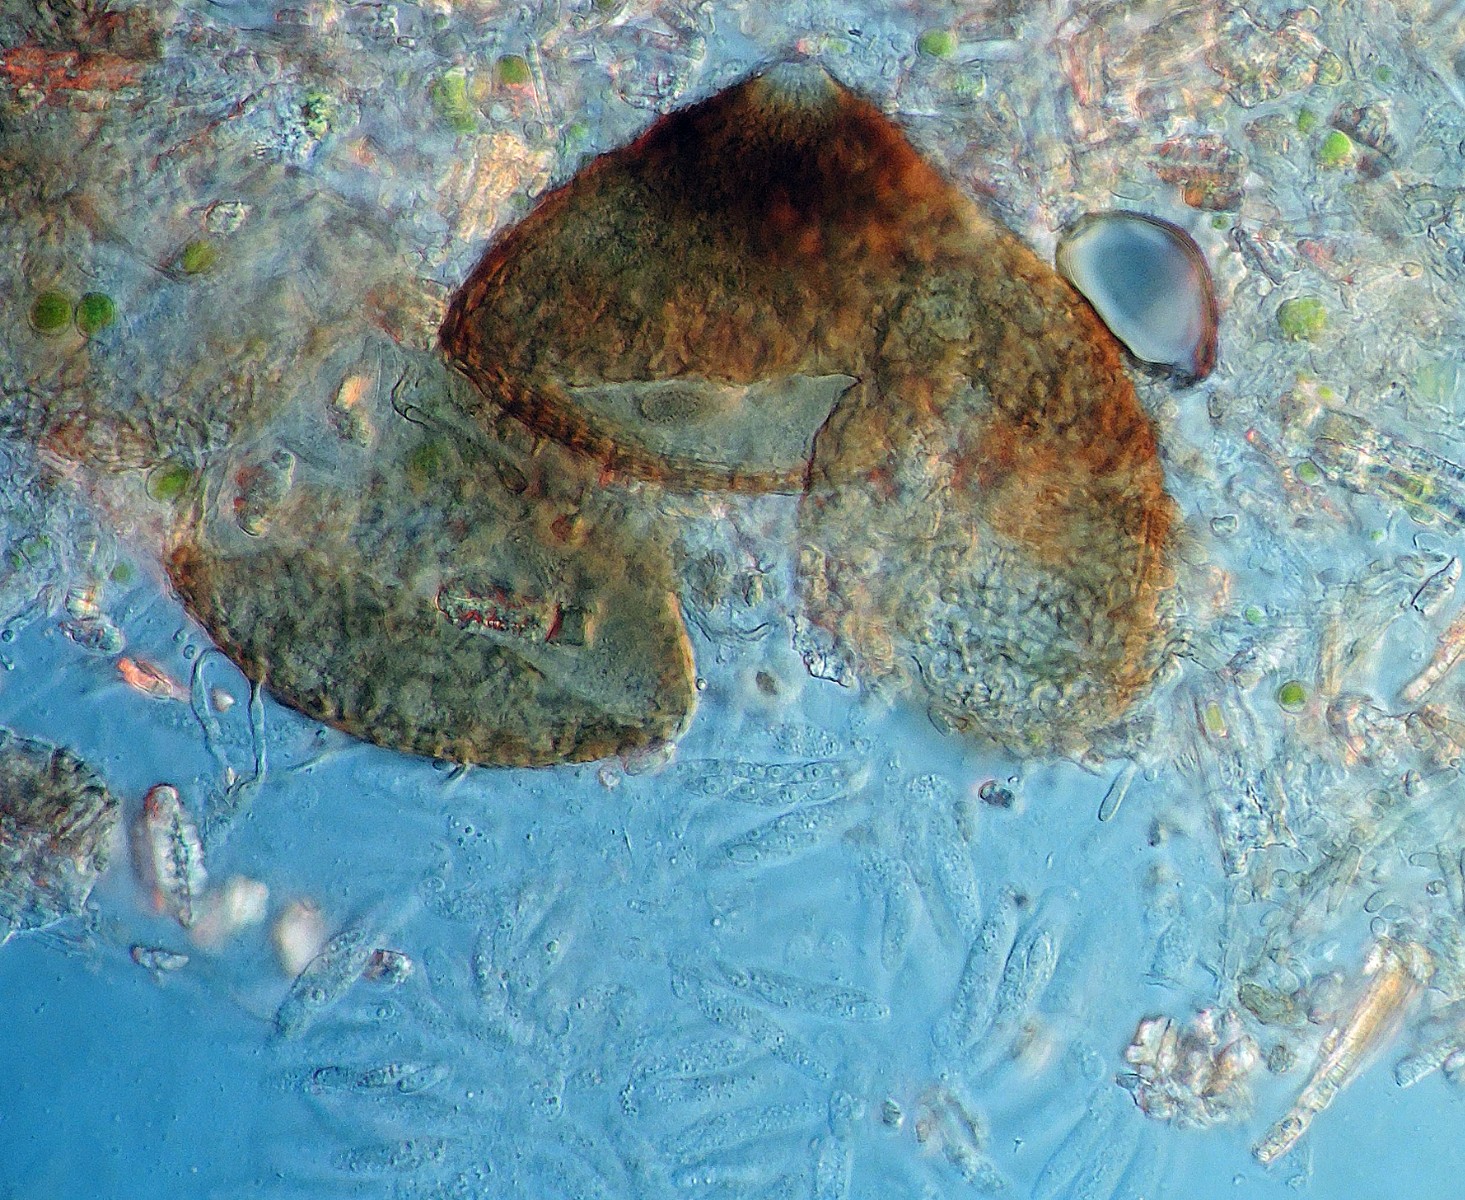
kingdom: Fungi
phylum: Ascomycota
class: Sordariomycetes
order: Hypocreales
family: Bionectriaceae
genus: Nectriella
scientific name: Nectriella exigua
